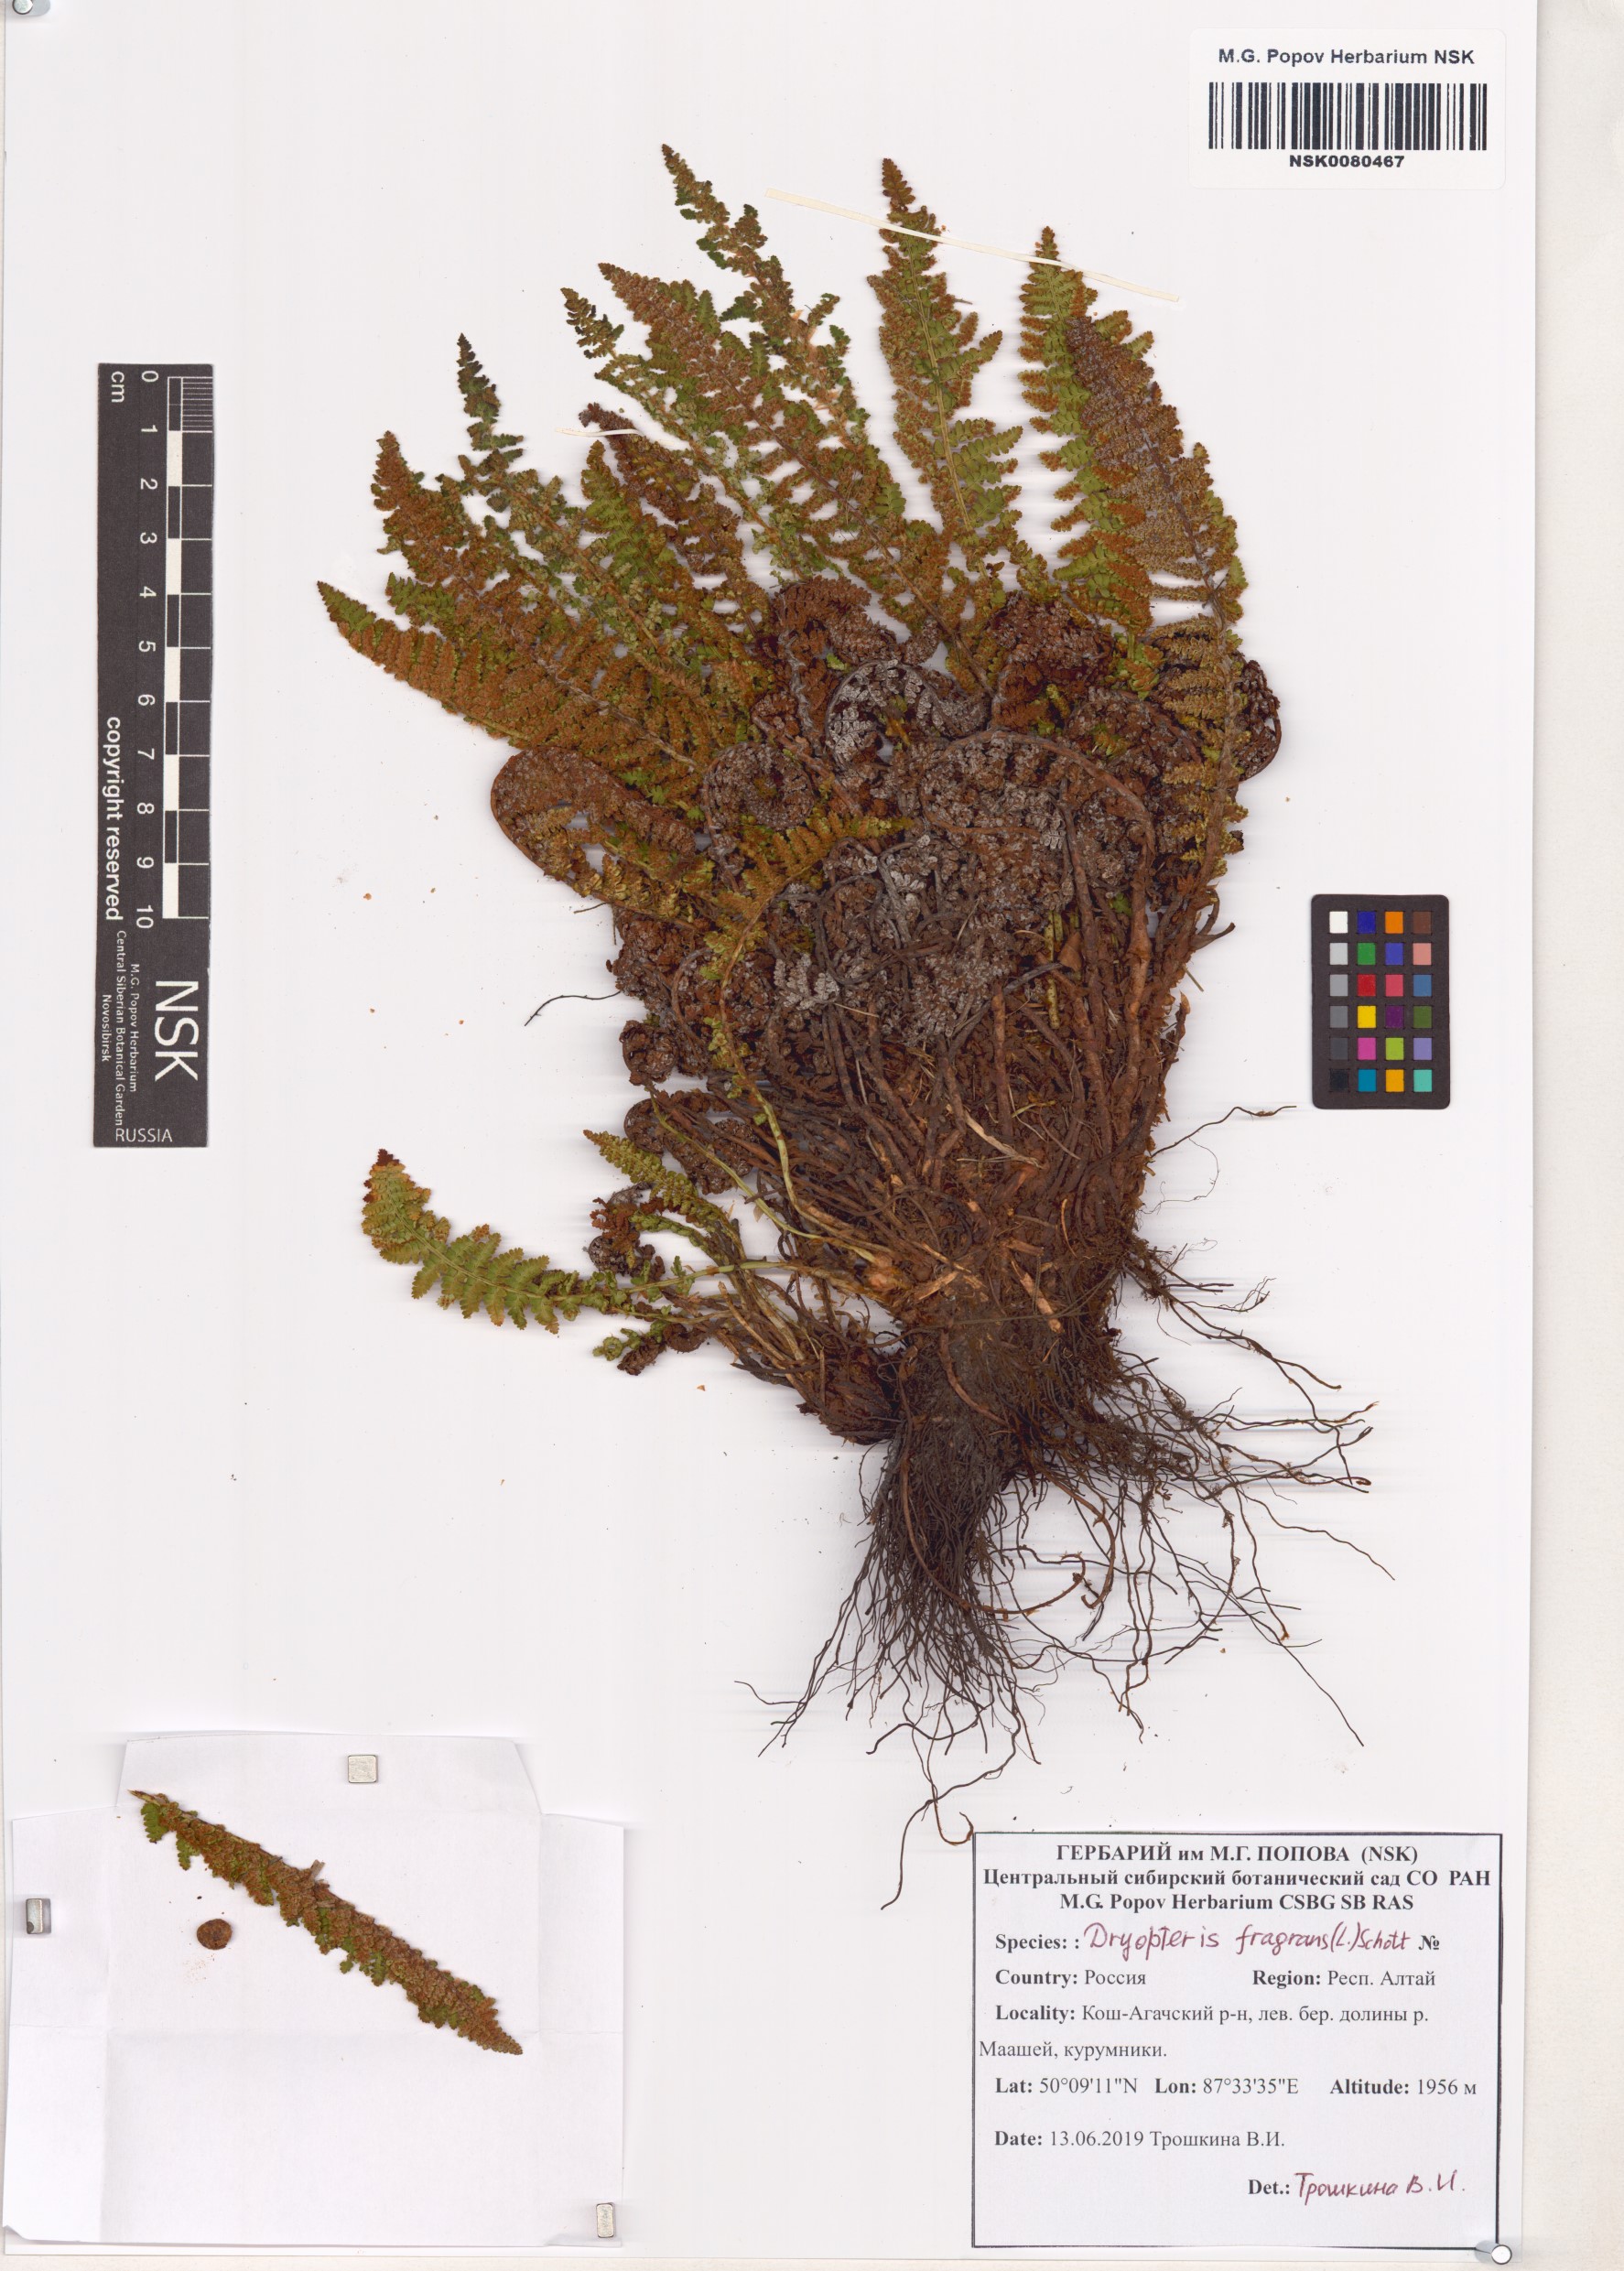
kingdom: Plantae
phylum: Tracheophyta
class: Polypodiopsida
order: Polypodiales
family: Dryopteridaceae
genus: Dryopteris
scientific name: Dryopteris fragrans
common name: Fragrant wood fern
